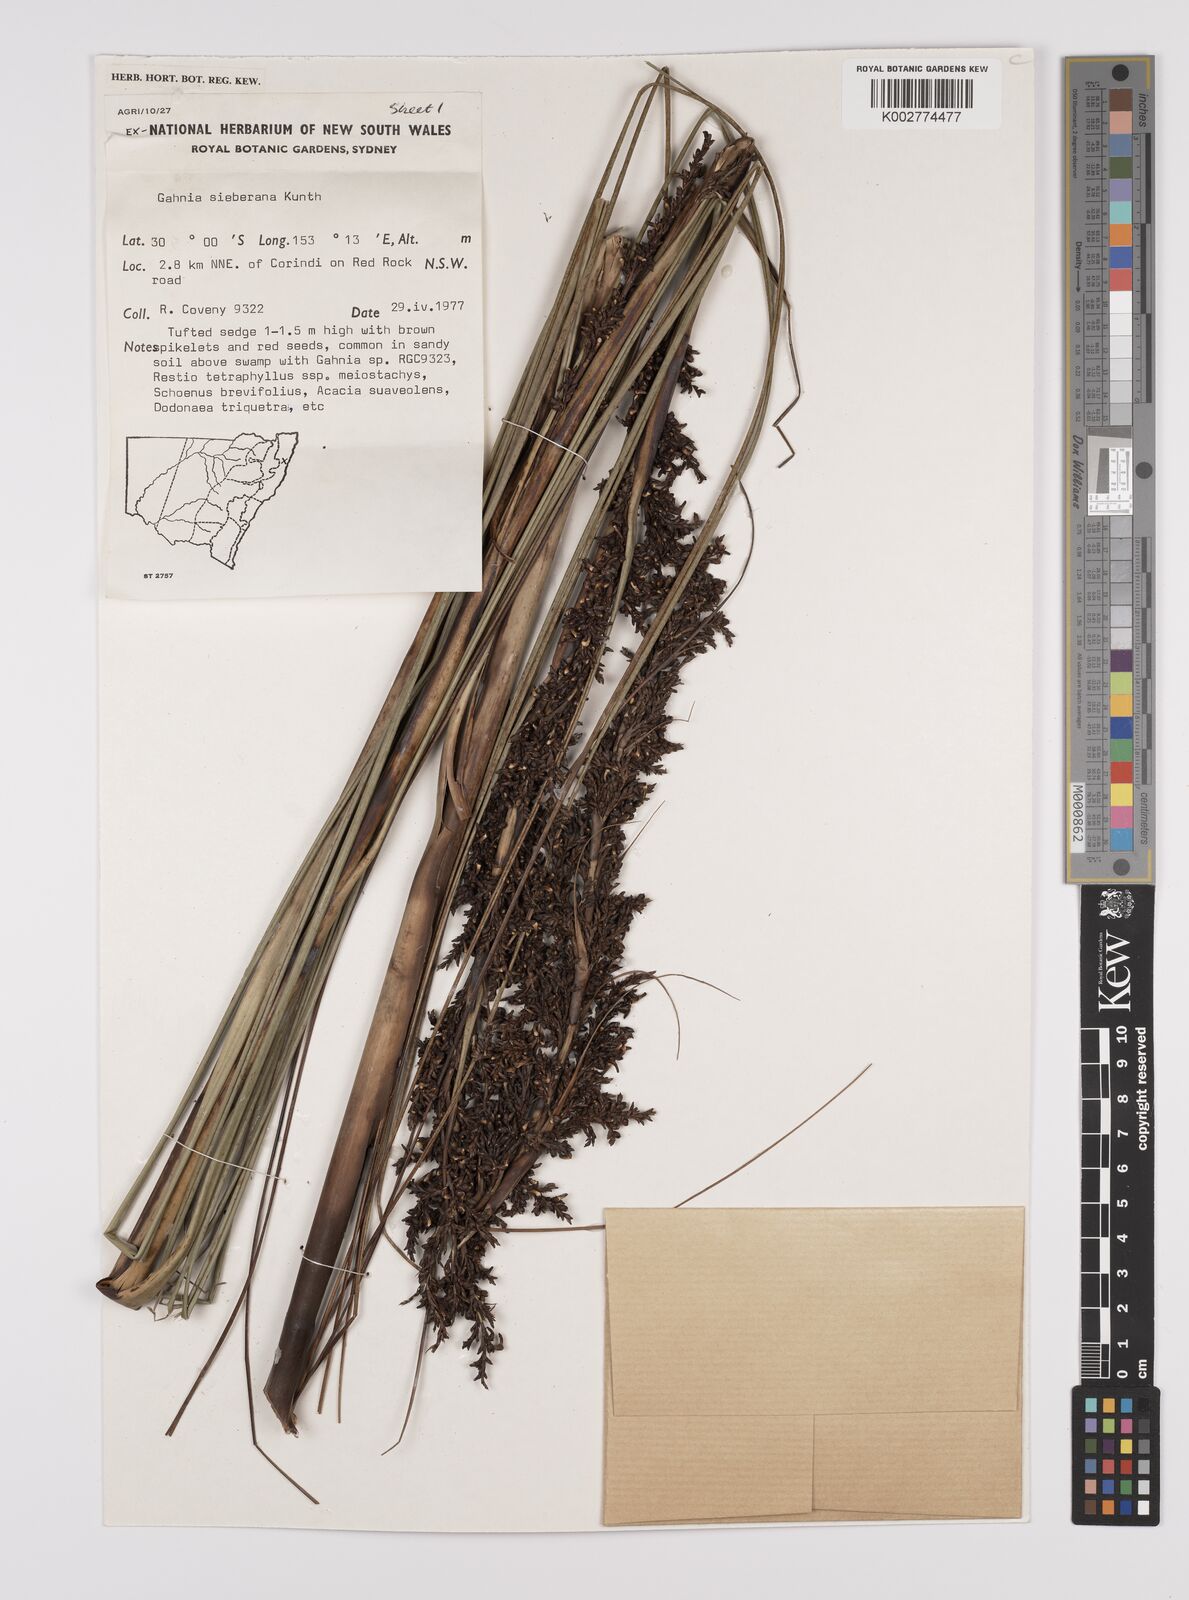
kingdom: Plantae
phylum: Tracheophyta
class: Liliopsida
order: Poales
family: Cyperaceae
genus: Gahnia
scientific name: Gahnia sieberiana
